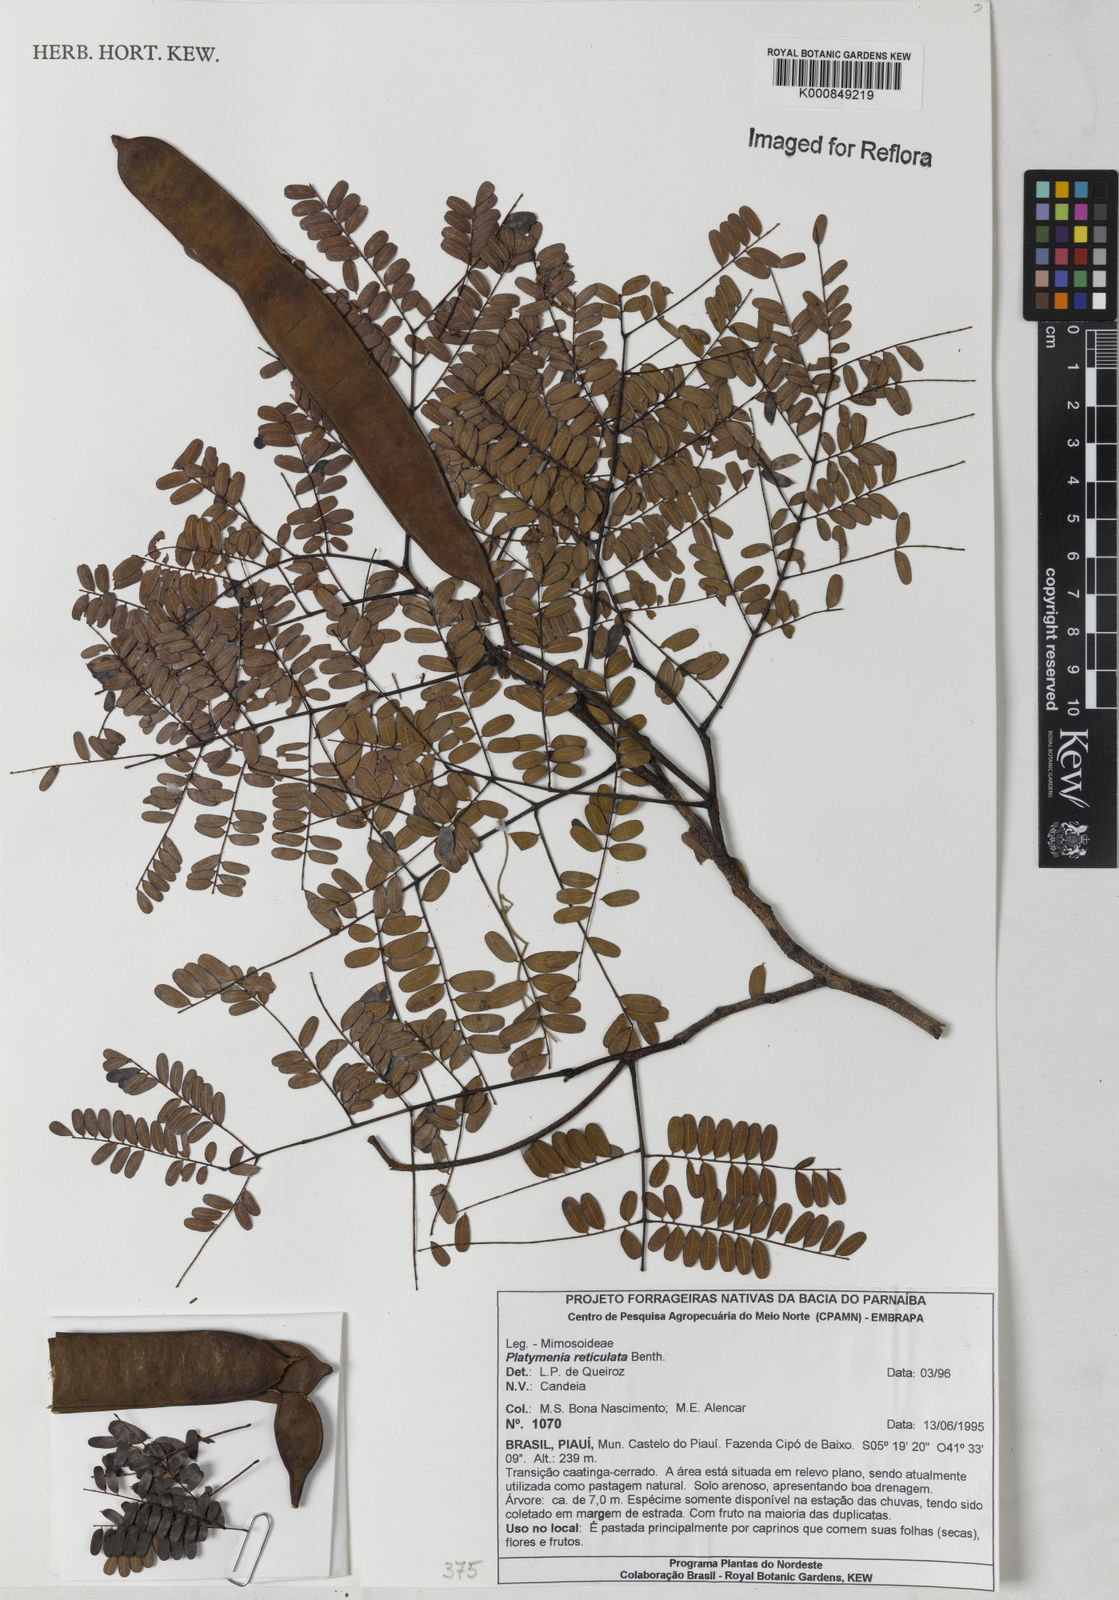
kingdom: Plantae
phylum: Tracheophyta
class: Magnoliopsida
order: Fabales
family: Fabaceae
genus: Plathymenia
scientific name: Plathymenia reticulata
